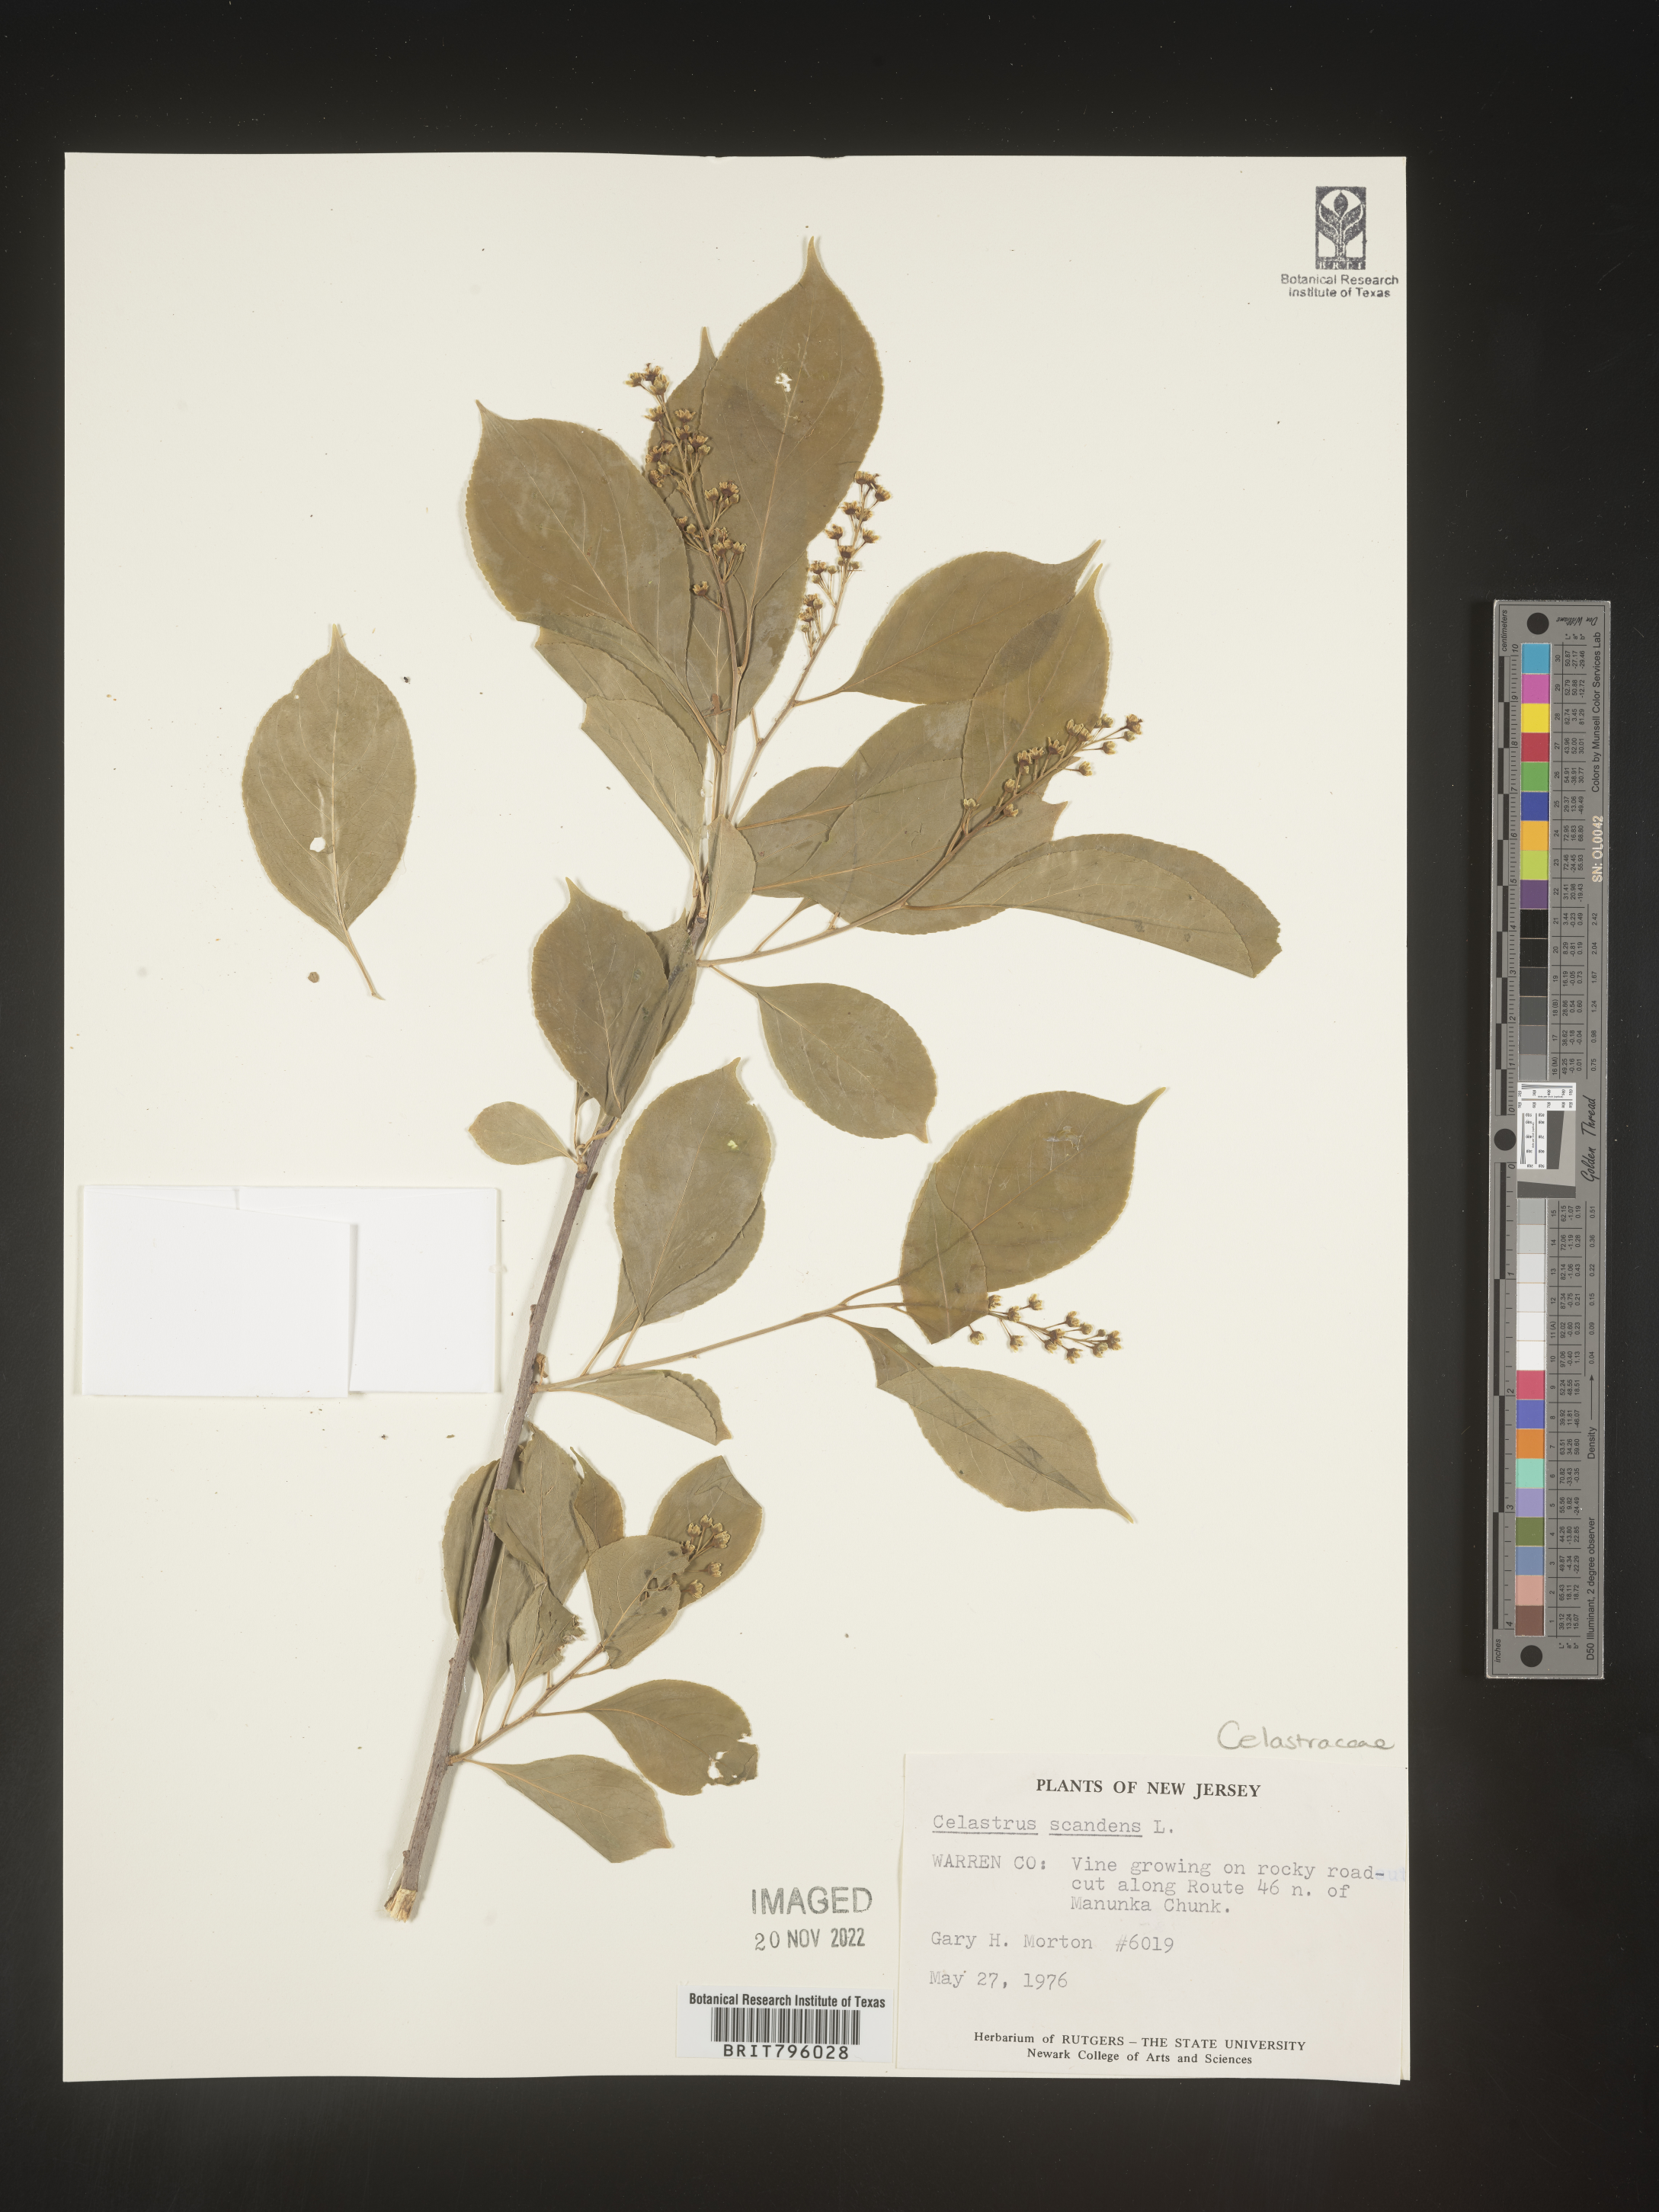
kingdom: Plantae
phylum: Tracheophyta
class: Magnoliopsida
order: Celastrales
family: Celastraceae
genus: Celastrus
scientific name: Celastrus scandens
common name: American bittersweet
